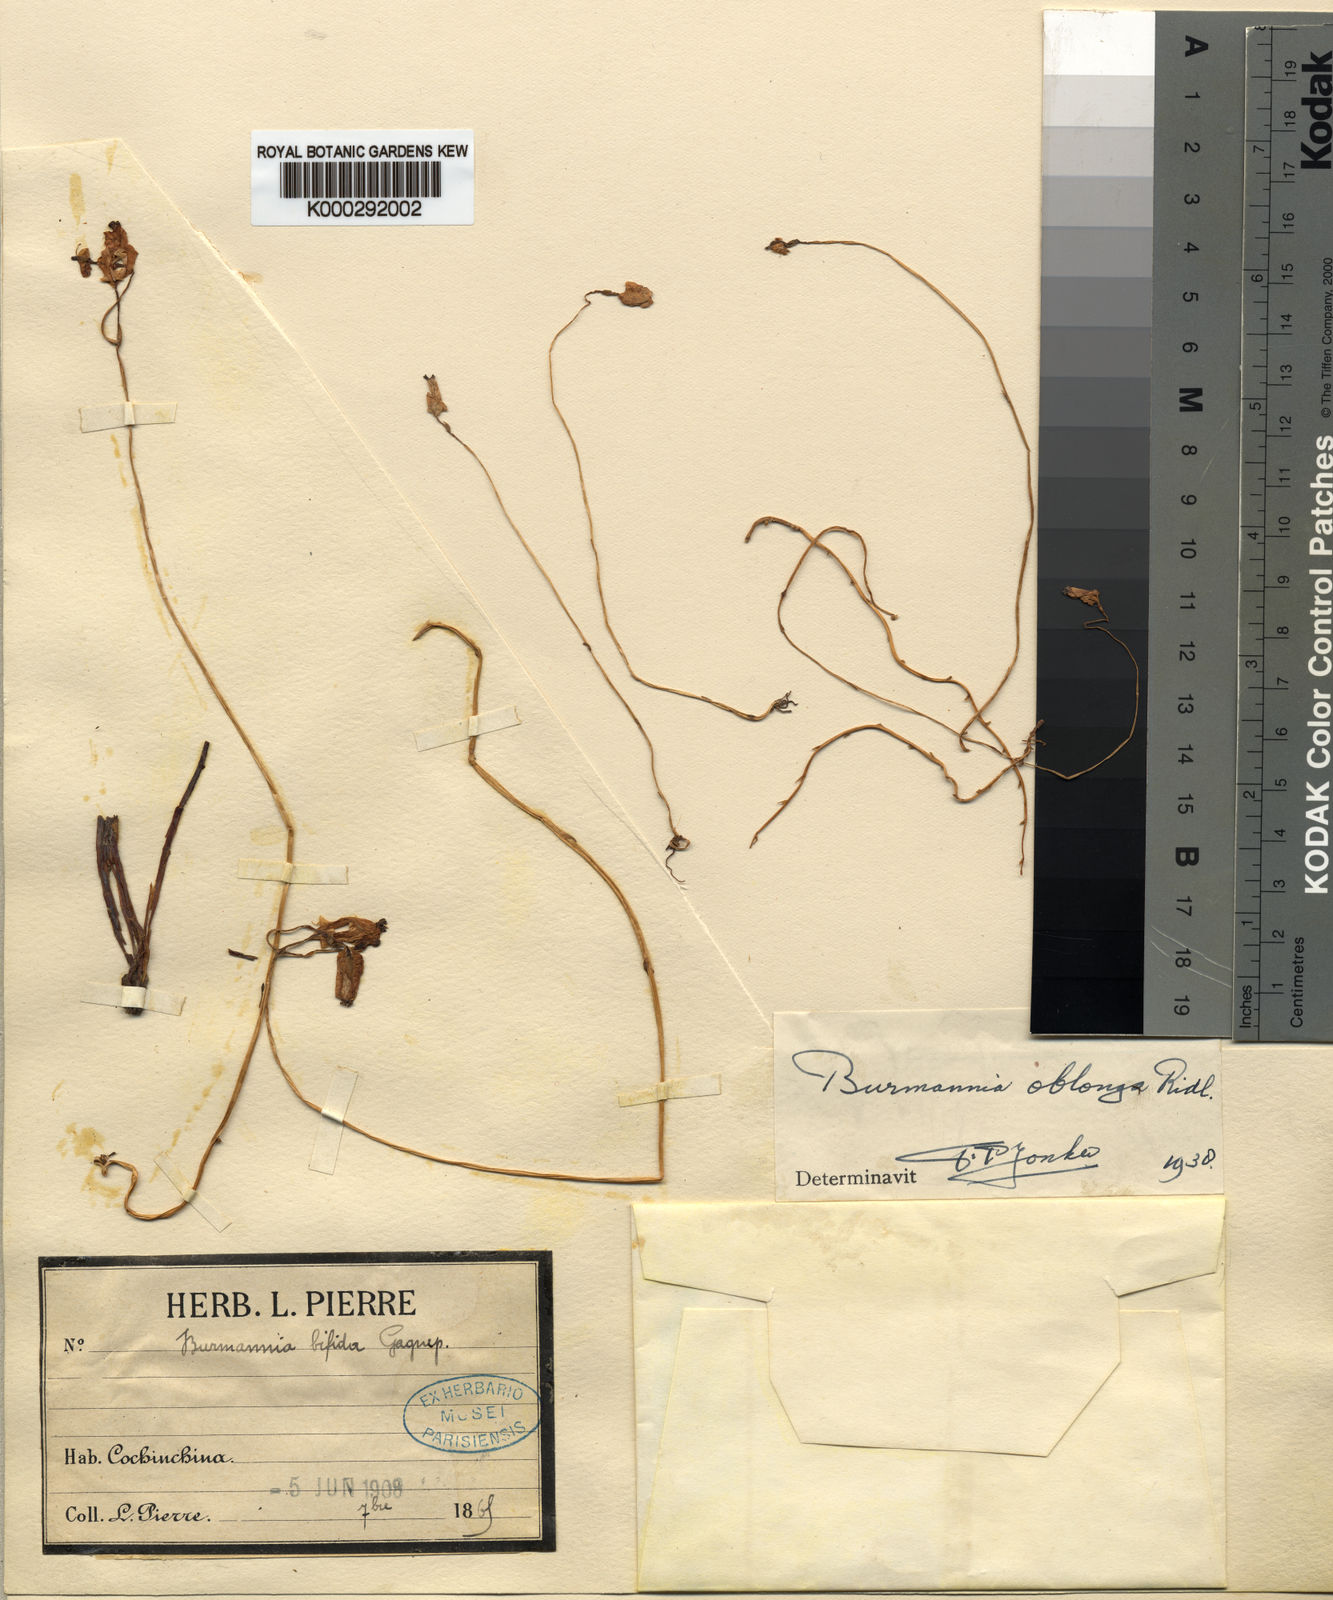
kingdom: Plantae
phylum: Tracheophyta
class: Liliopsida
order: Dioscoreales
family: Burmanniaceae
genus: Burmannia
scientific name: Burmannia oblonga
